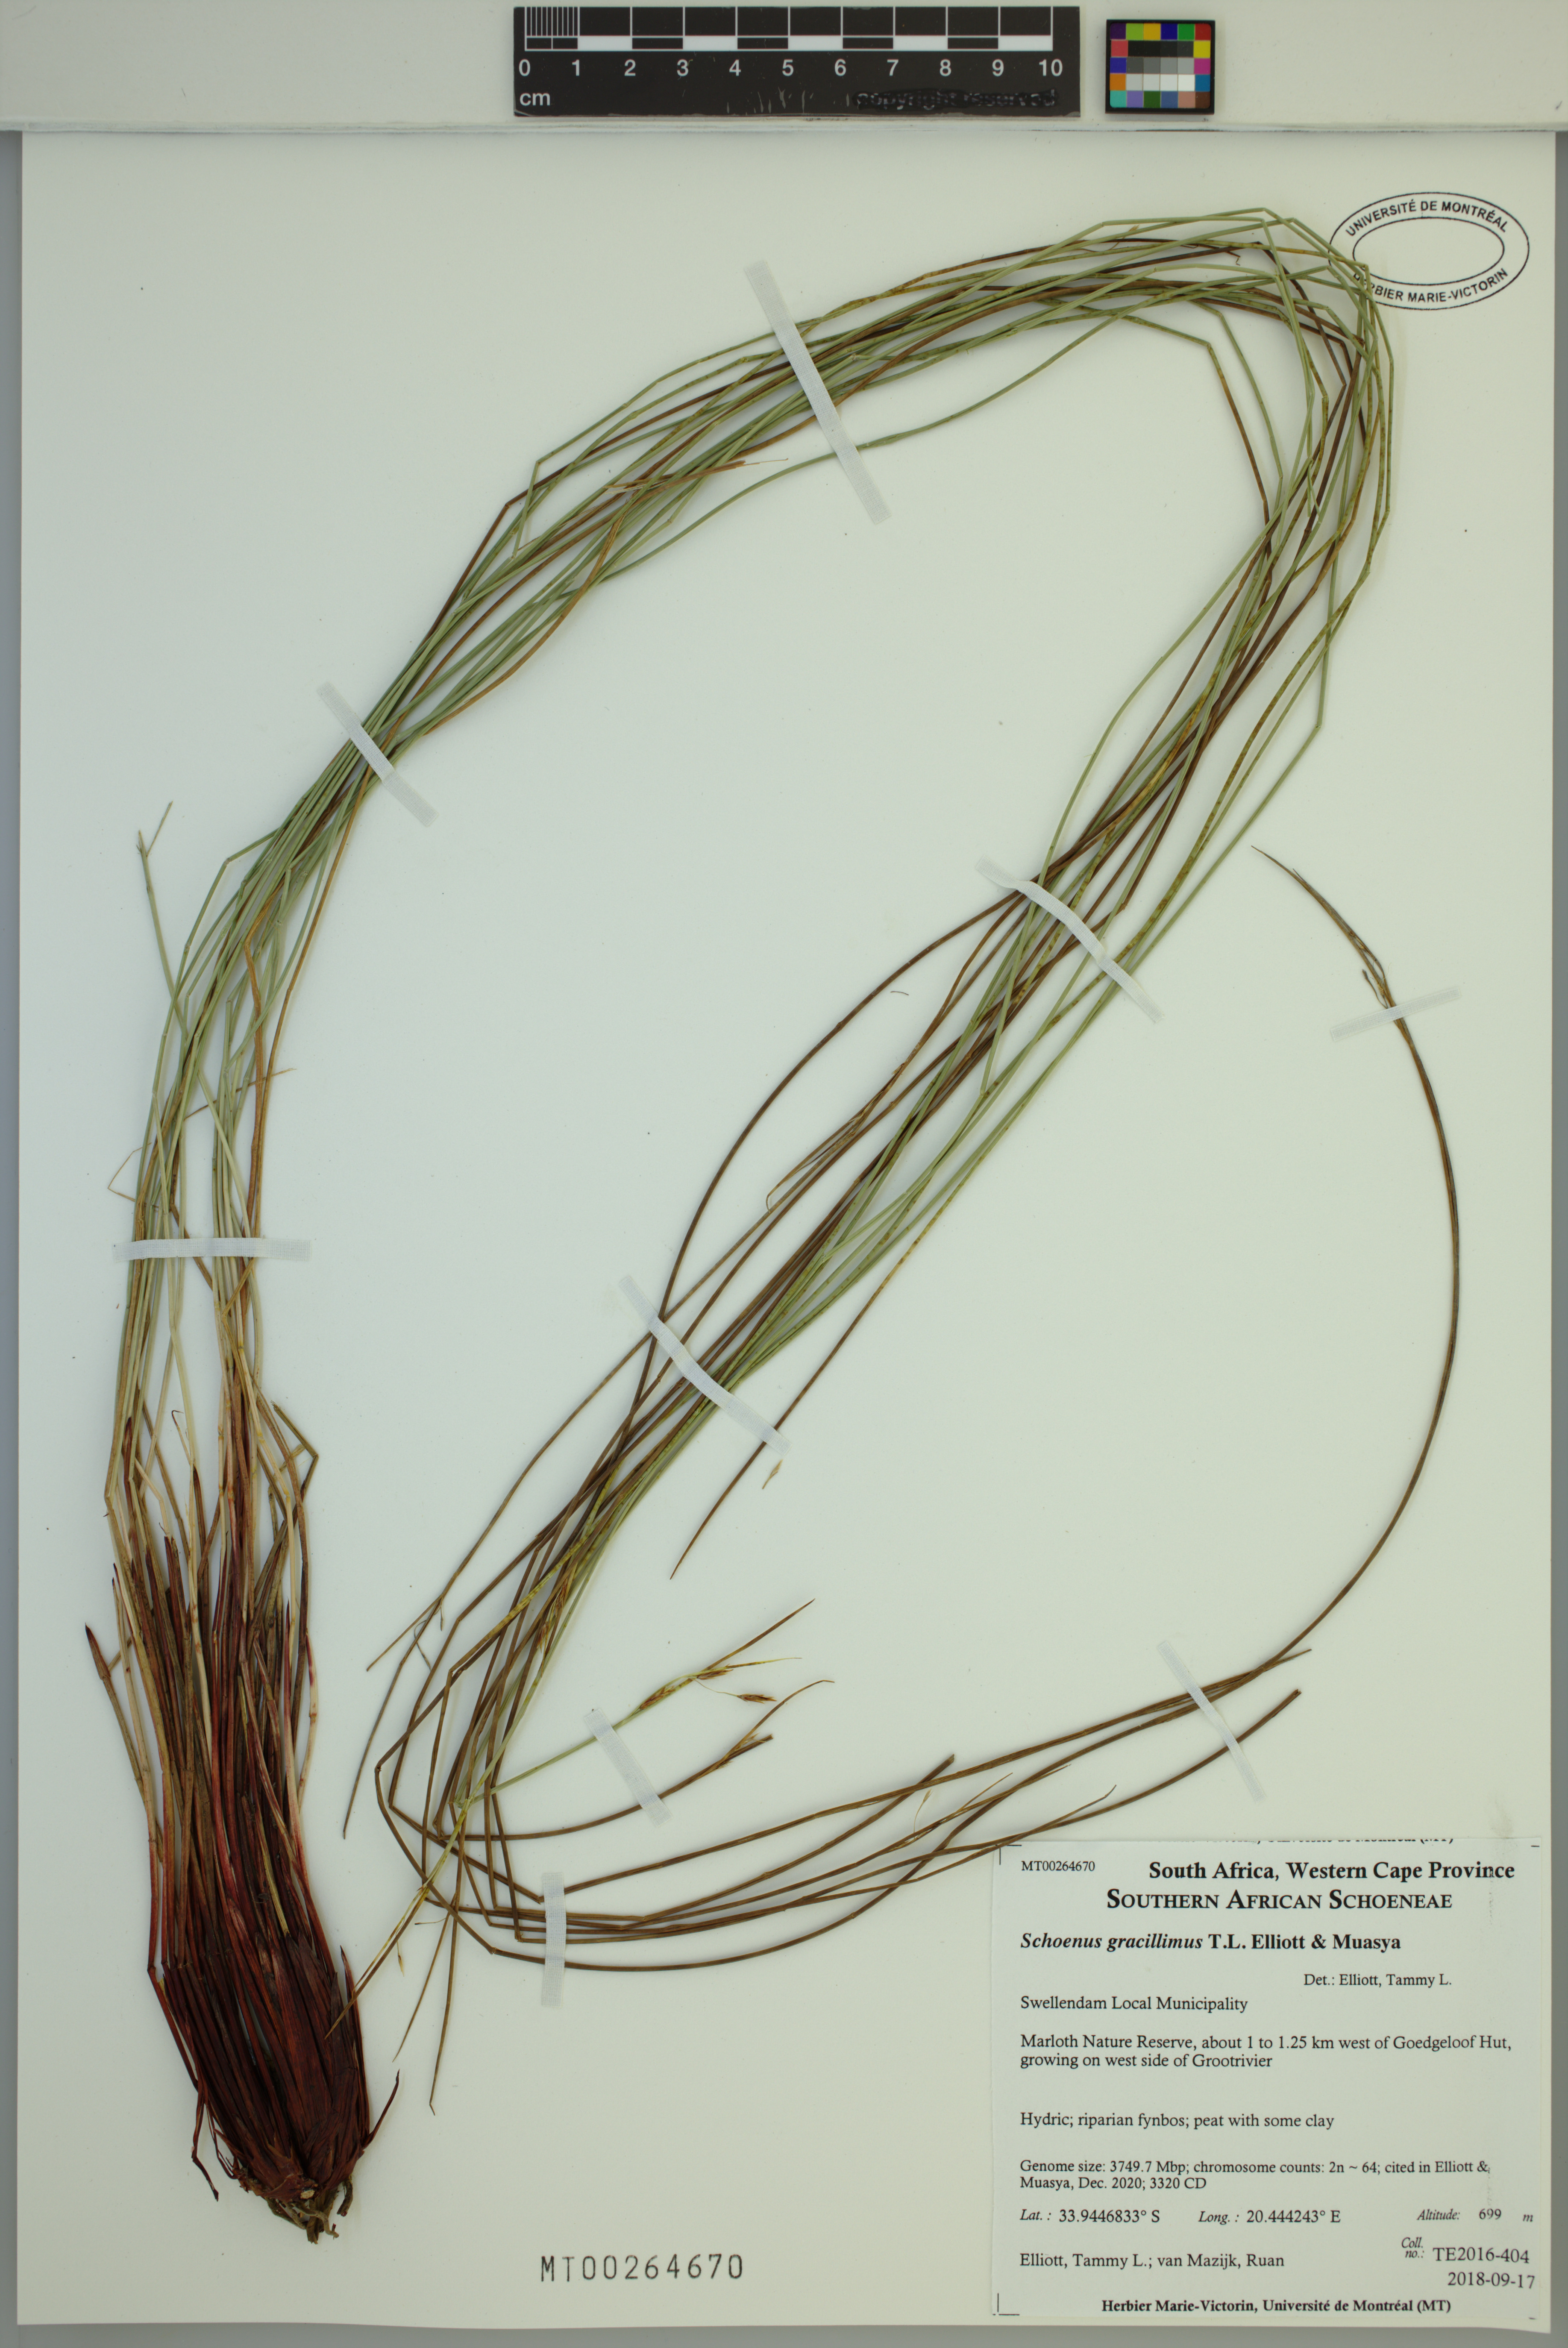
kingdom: Plantae
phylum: Tracheophyta
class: Liliopsida
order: Poales
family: Cyperaceae
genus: Schoenus
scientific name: Schoenus gracillimus
